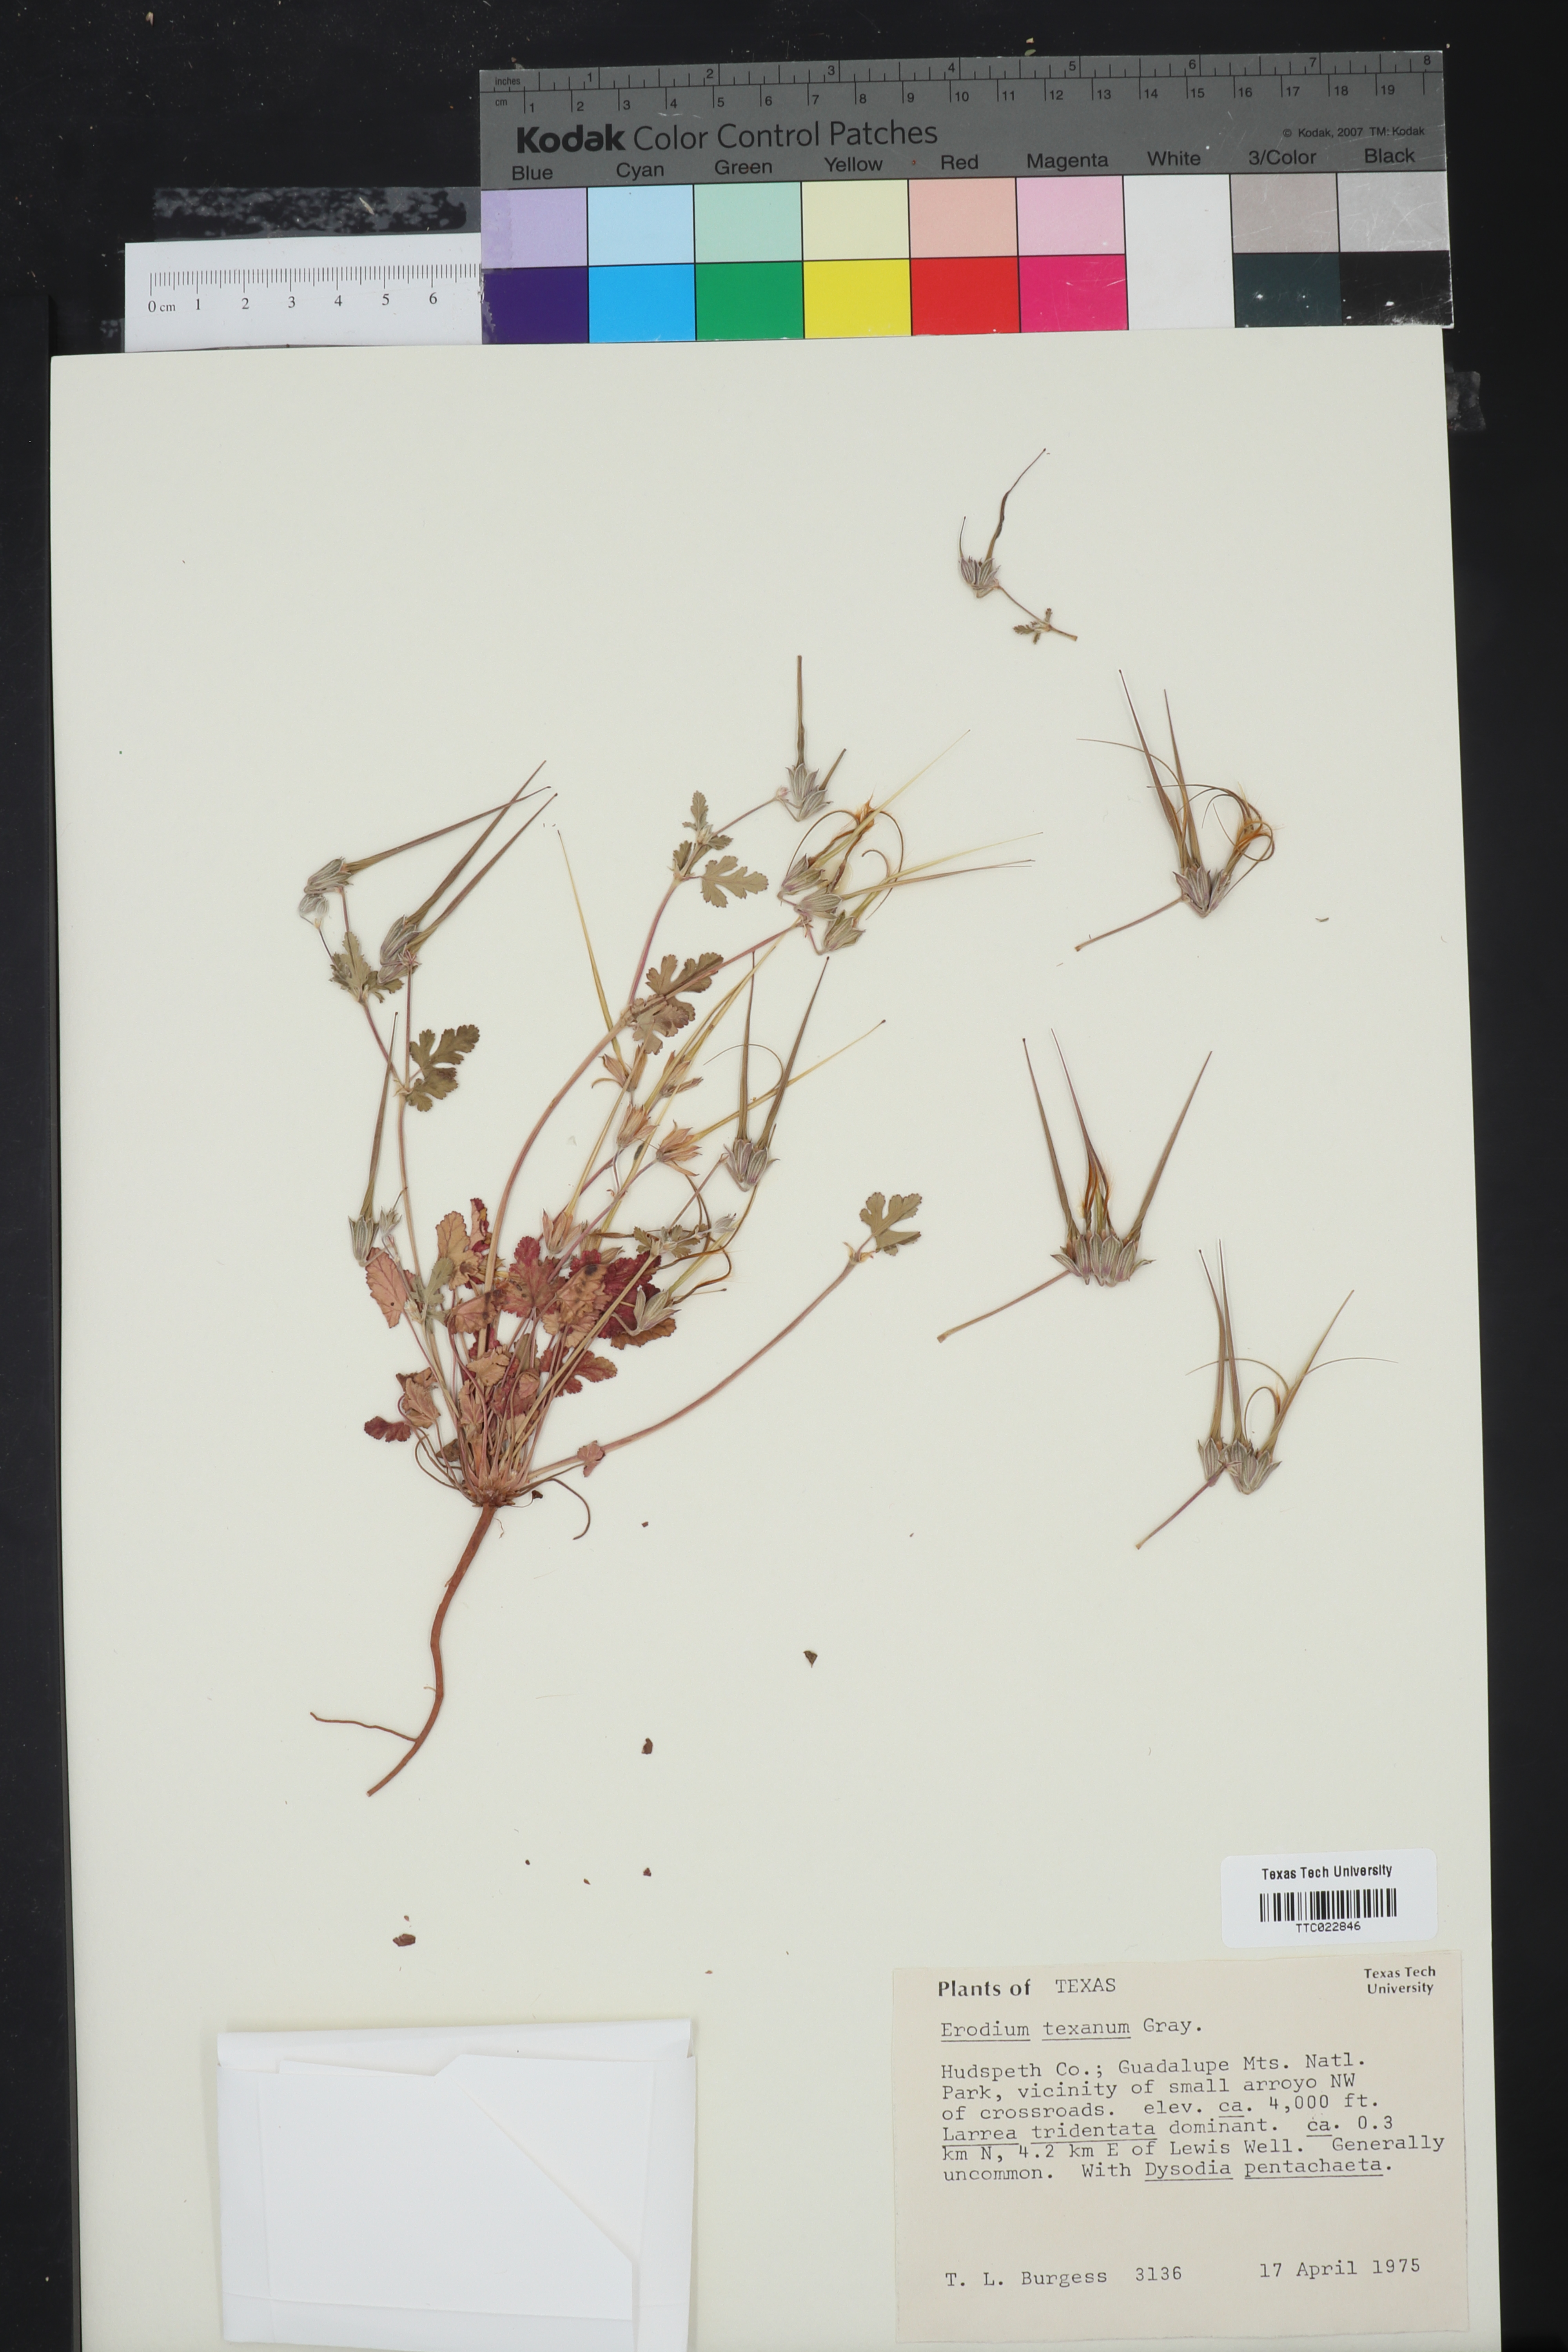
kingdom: Plantae
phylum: Tracheophyta
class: Magnoliopsida
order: Geraniales
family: Geraniaceae
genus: Erodium
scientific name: Erodium texanum
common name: Texas stork's-bill
